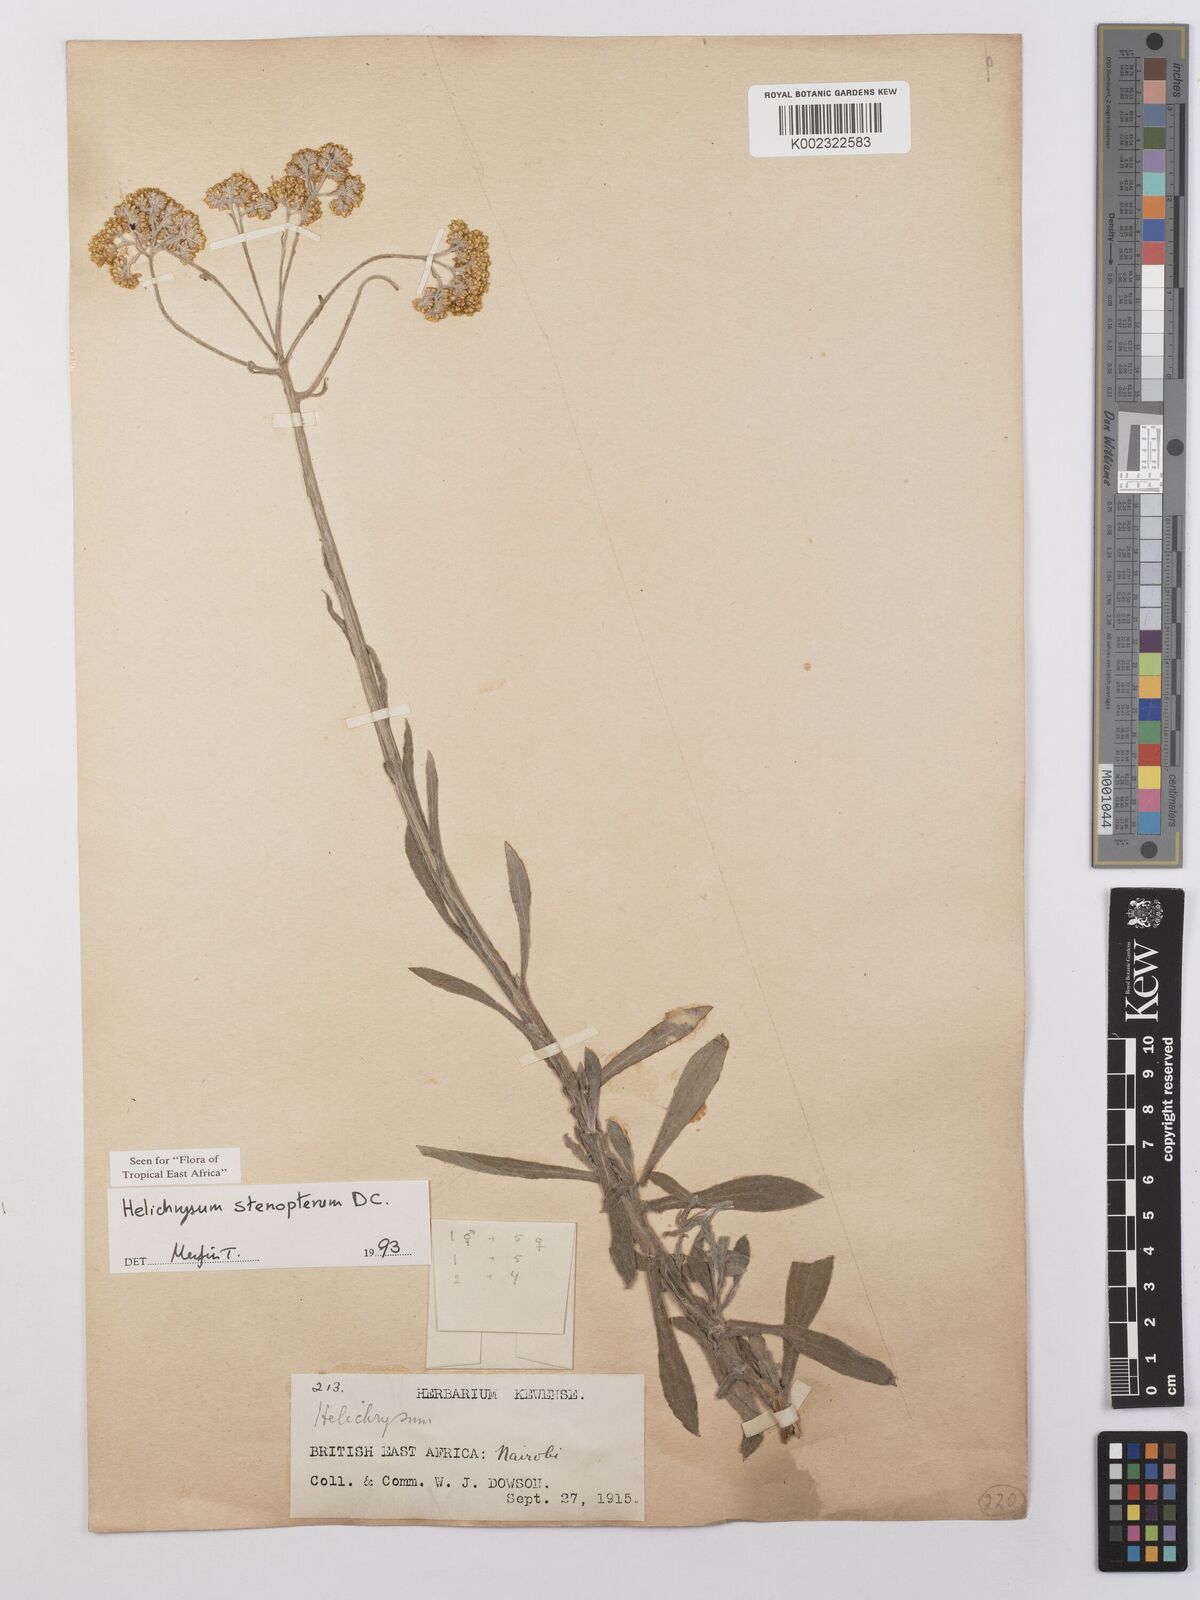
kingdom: Plantae
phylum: Tracheophyta
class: Magnoliopsida
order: Asterales
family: Asteraceae
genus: Helichrysum
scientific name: Helichrysum stenopterum
